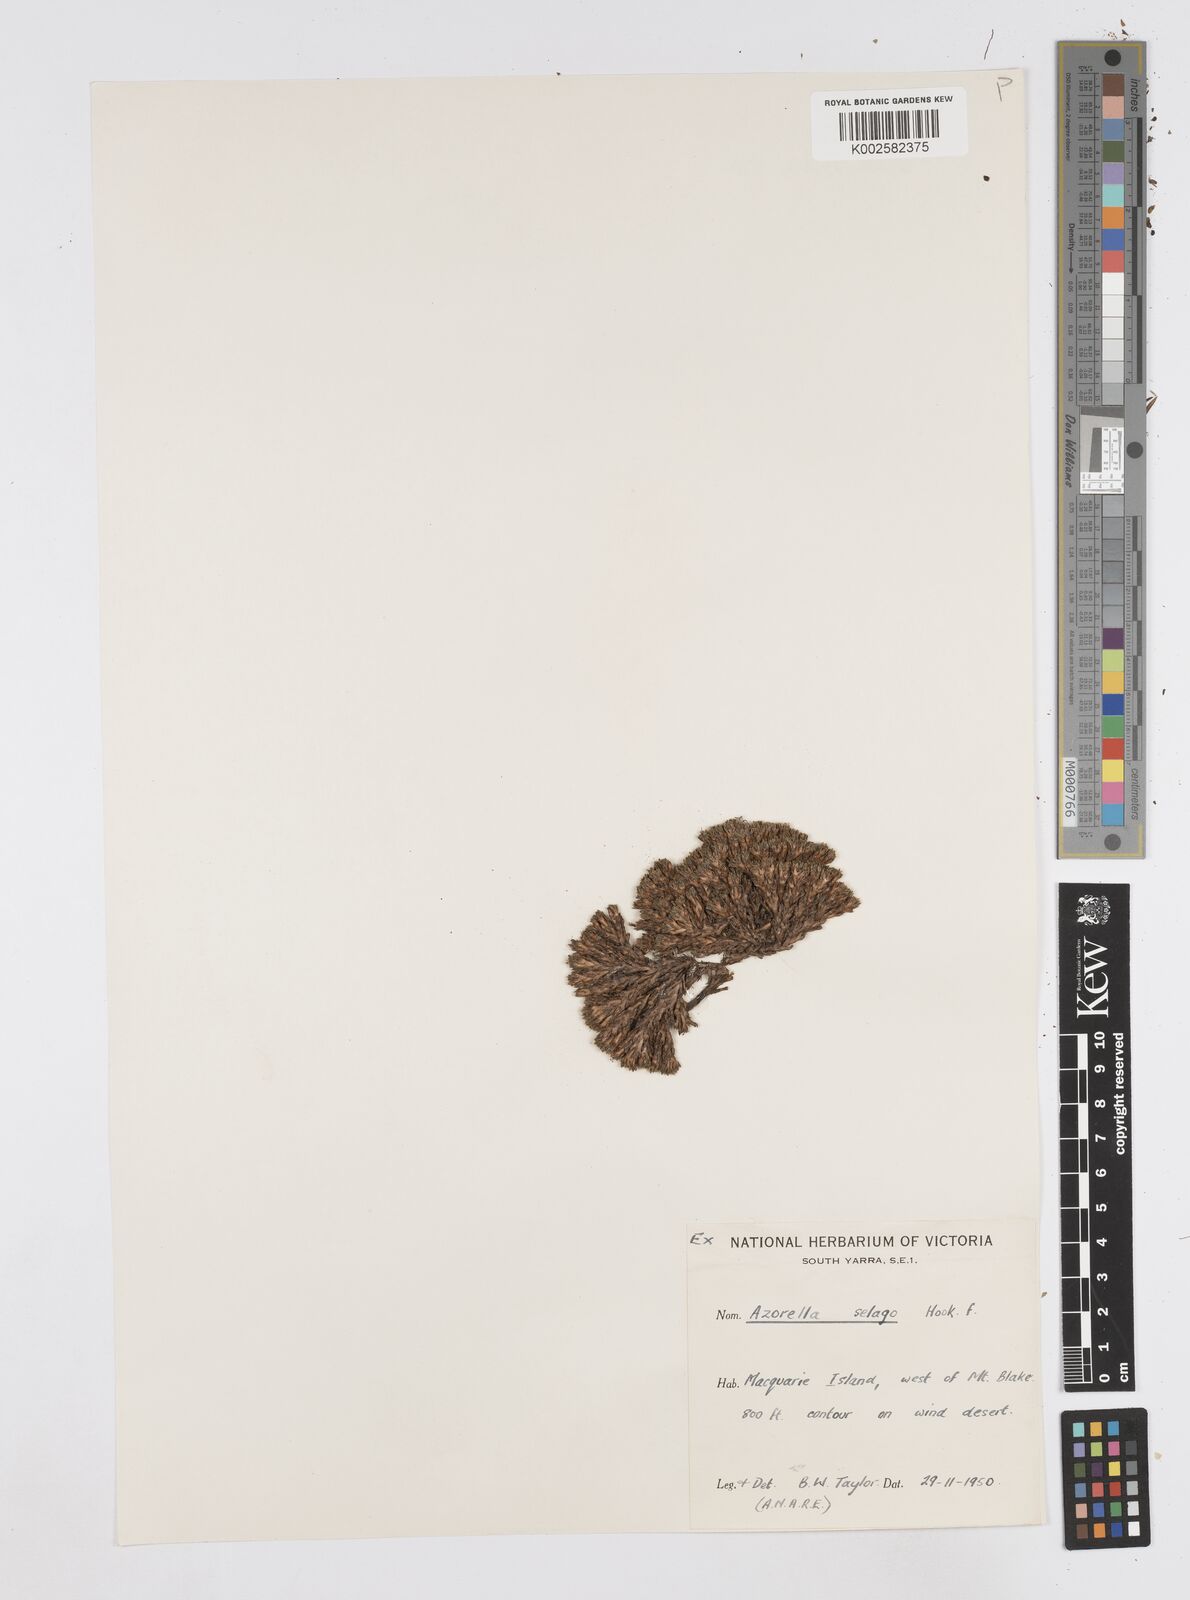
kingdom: Plantae
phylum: Tracheophyta
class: Magnoliopsida
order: Apiales
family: Apiaceae
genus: Azorella
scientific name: Azorella selago
